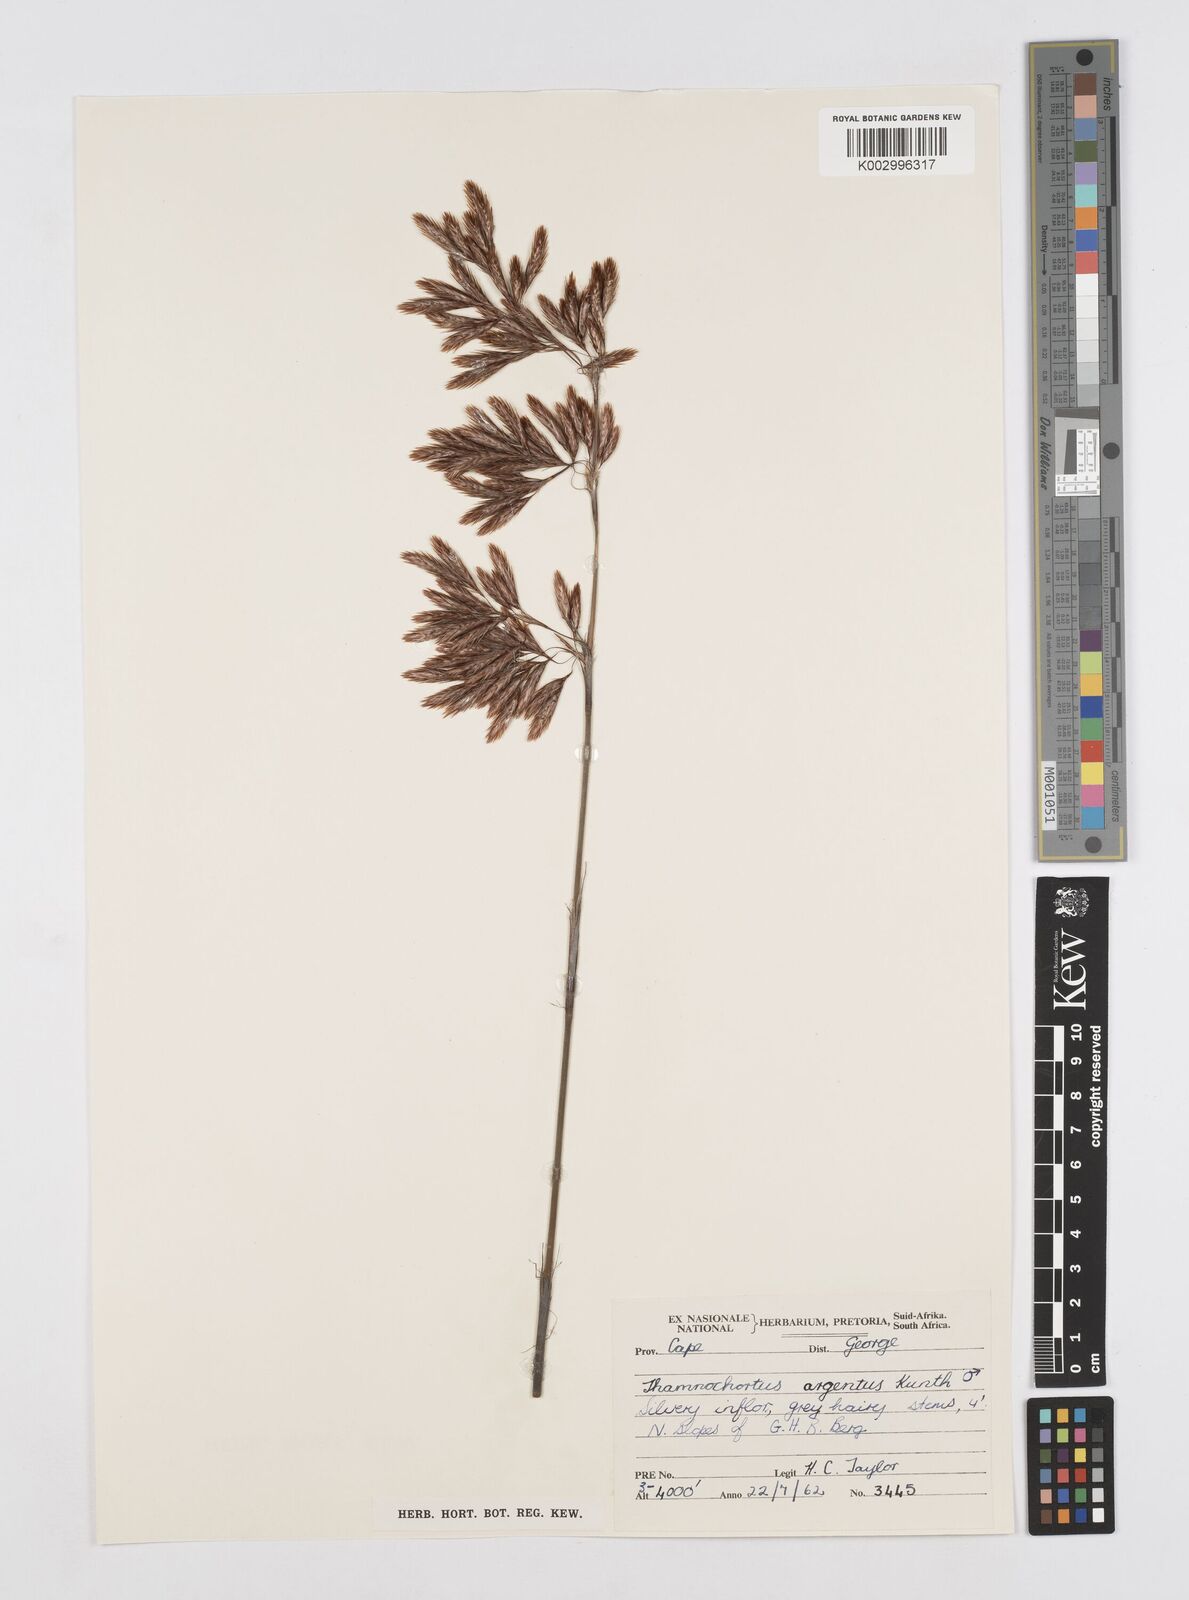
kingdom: Plantae
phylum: Tracheophyta
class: Liliopsida
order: Poales
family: Restionaceae
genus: Hypodiscus
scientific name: Hypodiscus argenteus
